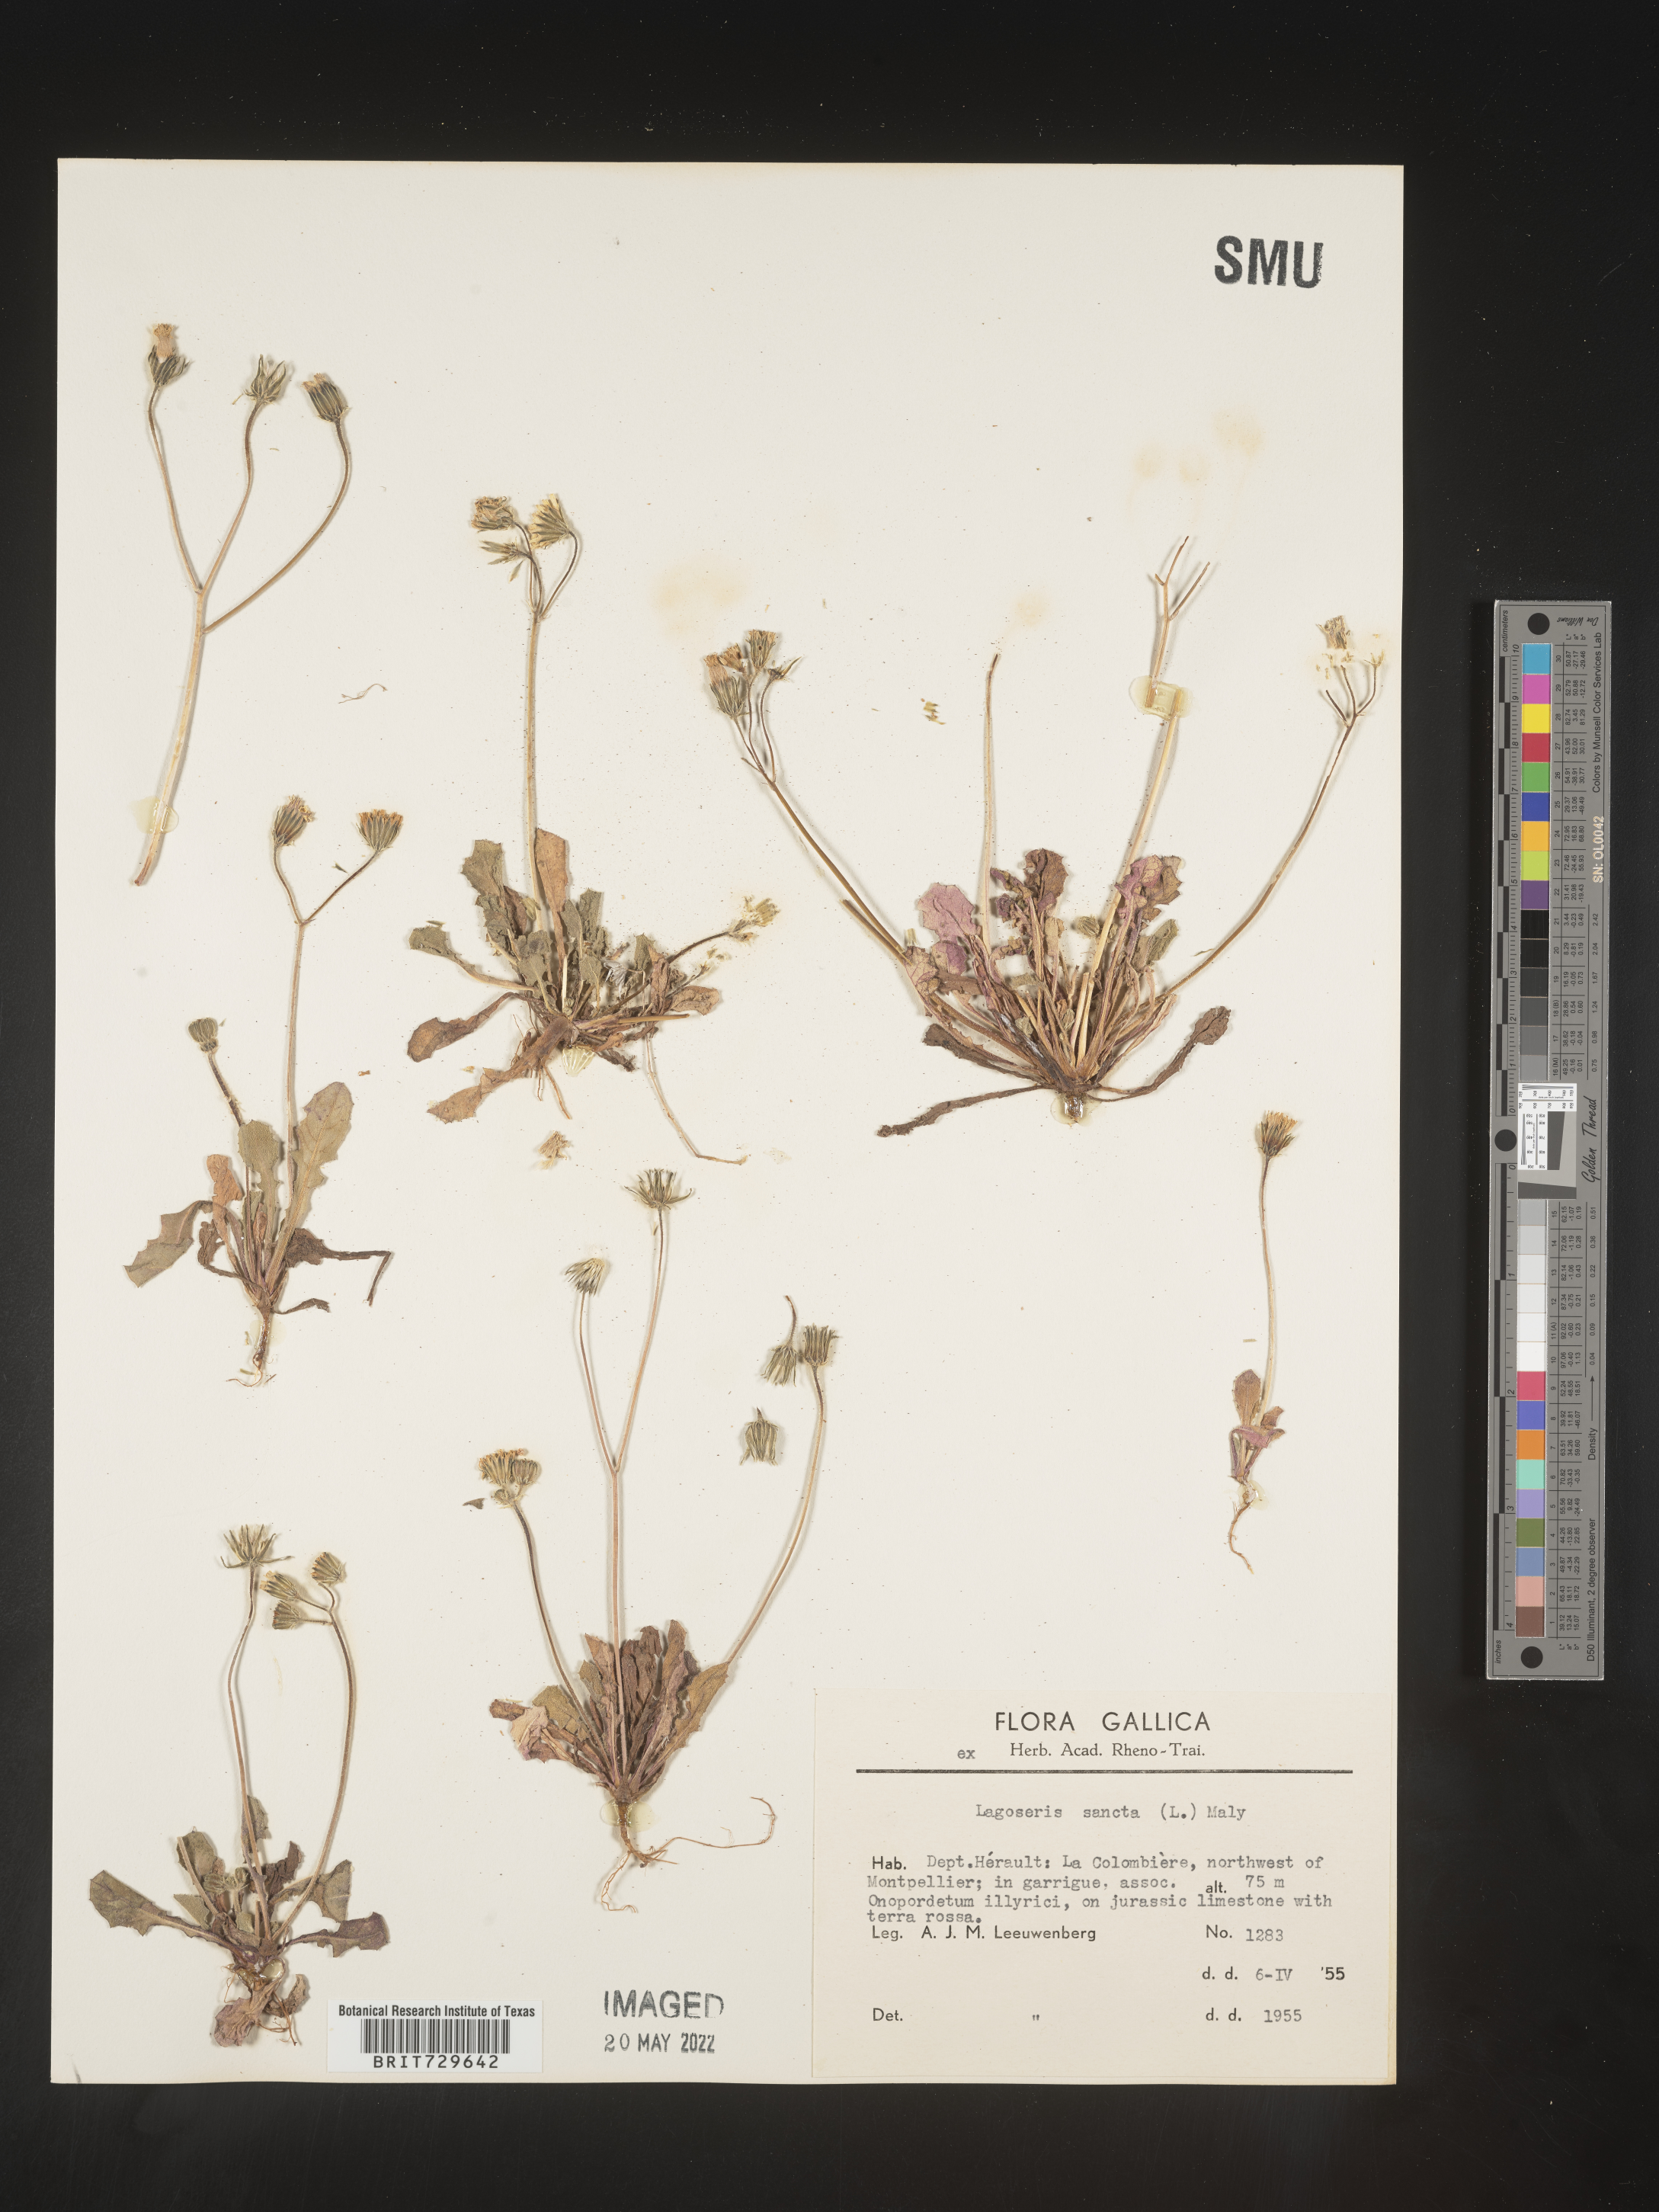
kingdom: Plantae
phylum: Tracheophyta
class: Magnoliopsida
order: Asterales
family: Asteraceae
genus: Lagoseris
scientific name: Lagoseris
